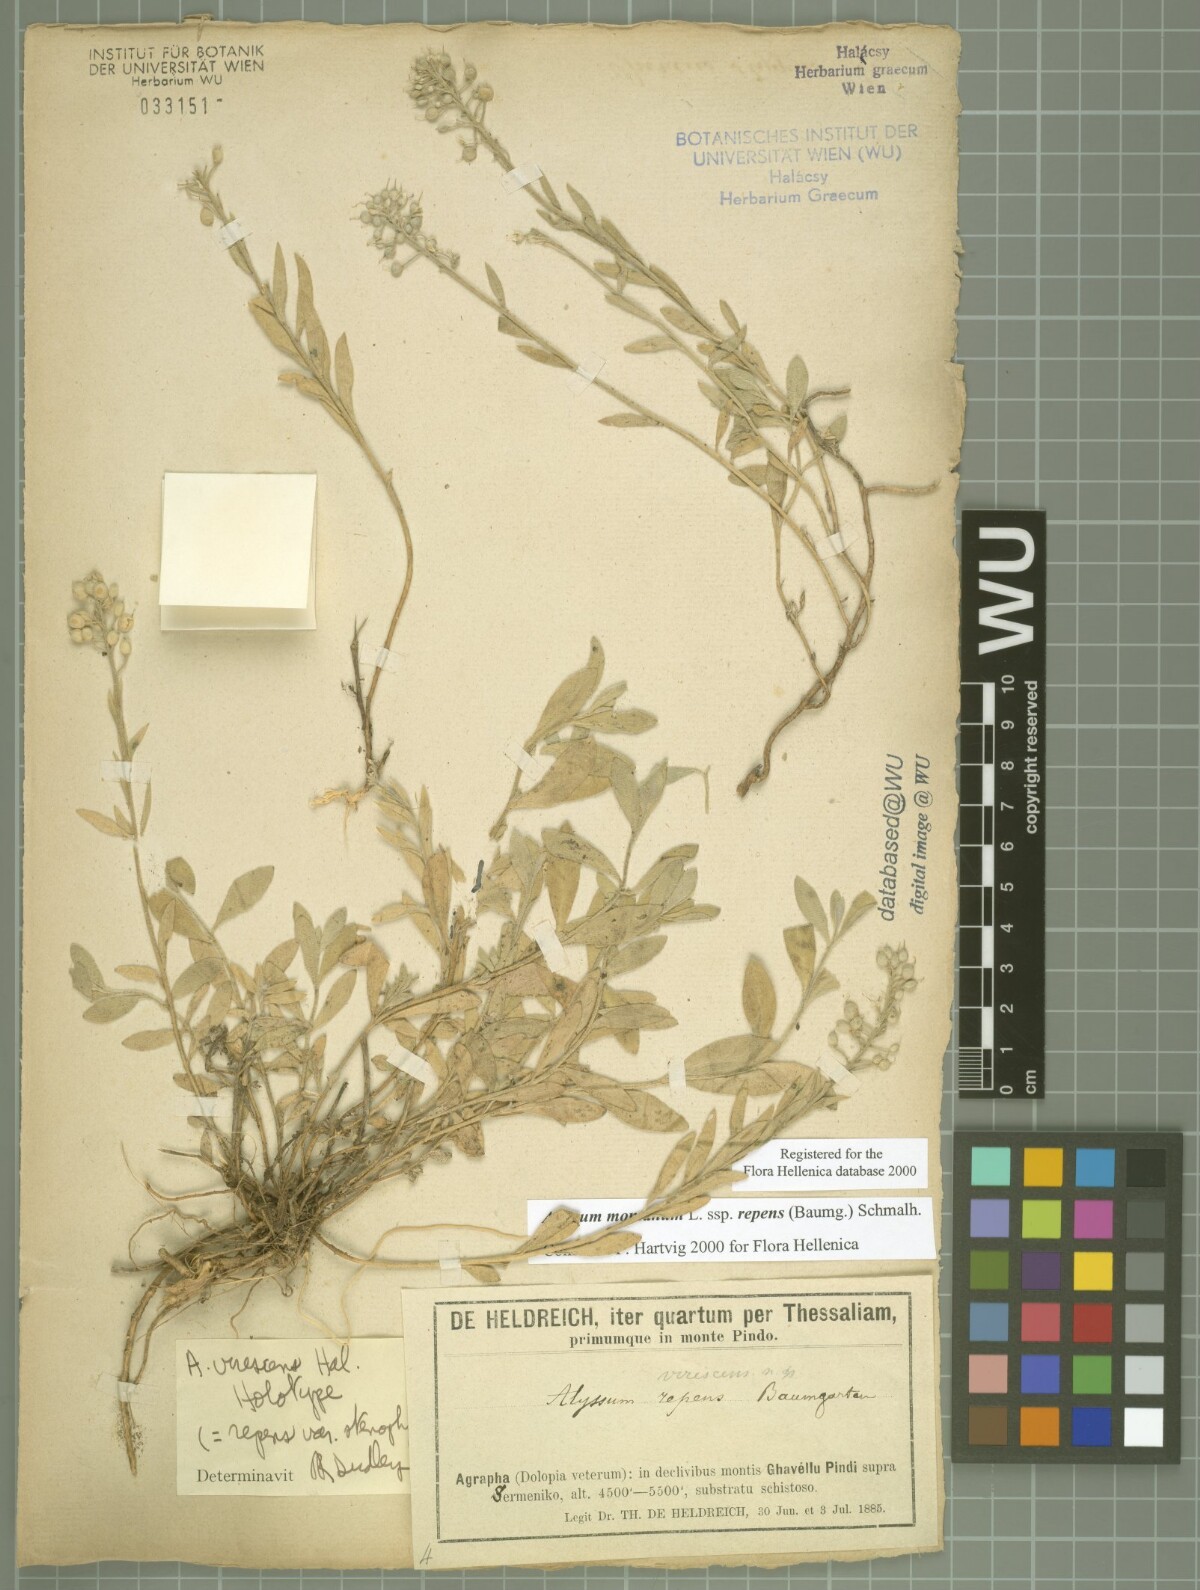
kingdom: Plantae
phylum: Tracheophyta
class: Magnoliopsida
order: Brassicales
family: Brassicaceae
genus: Alyssum
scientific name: Alyssum trichostachyum
